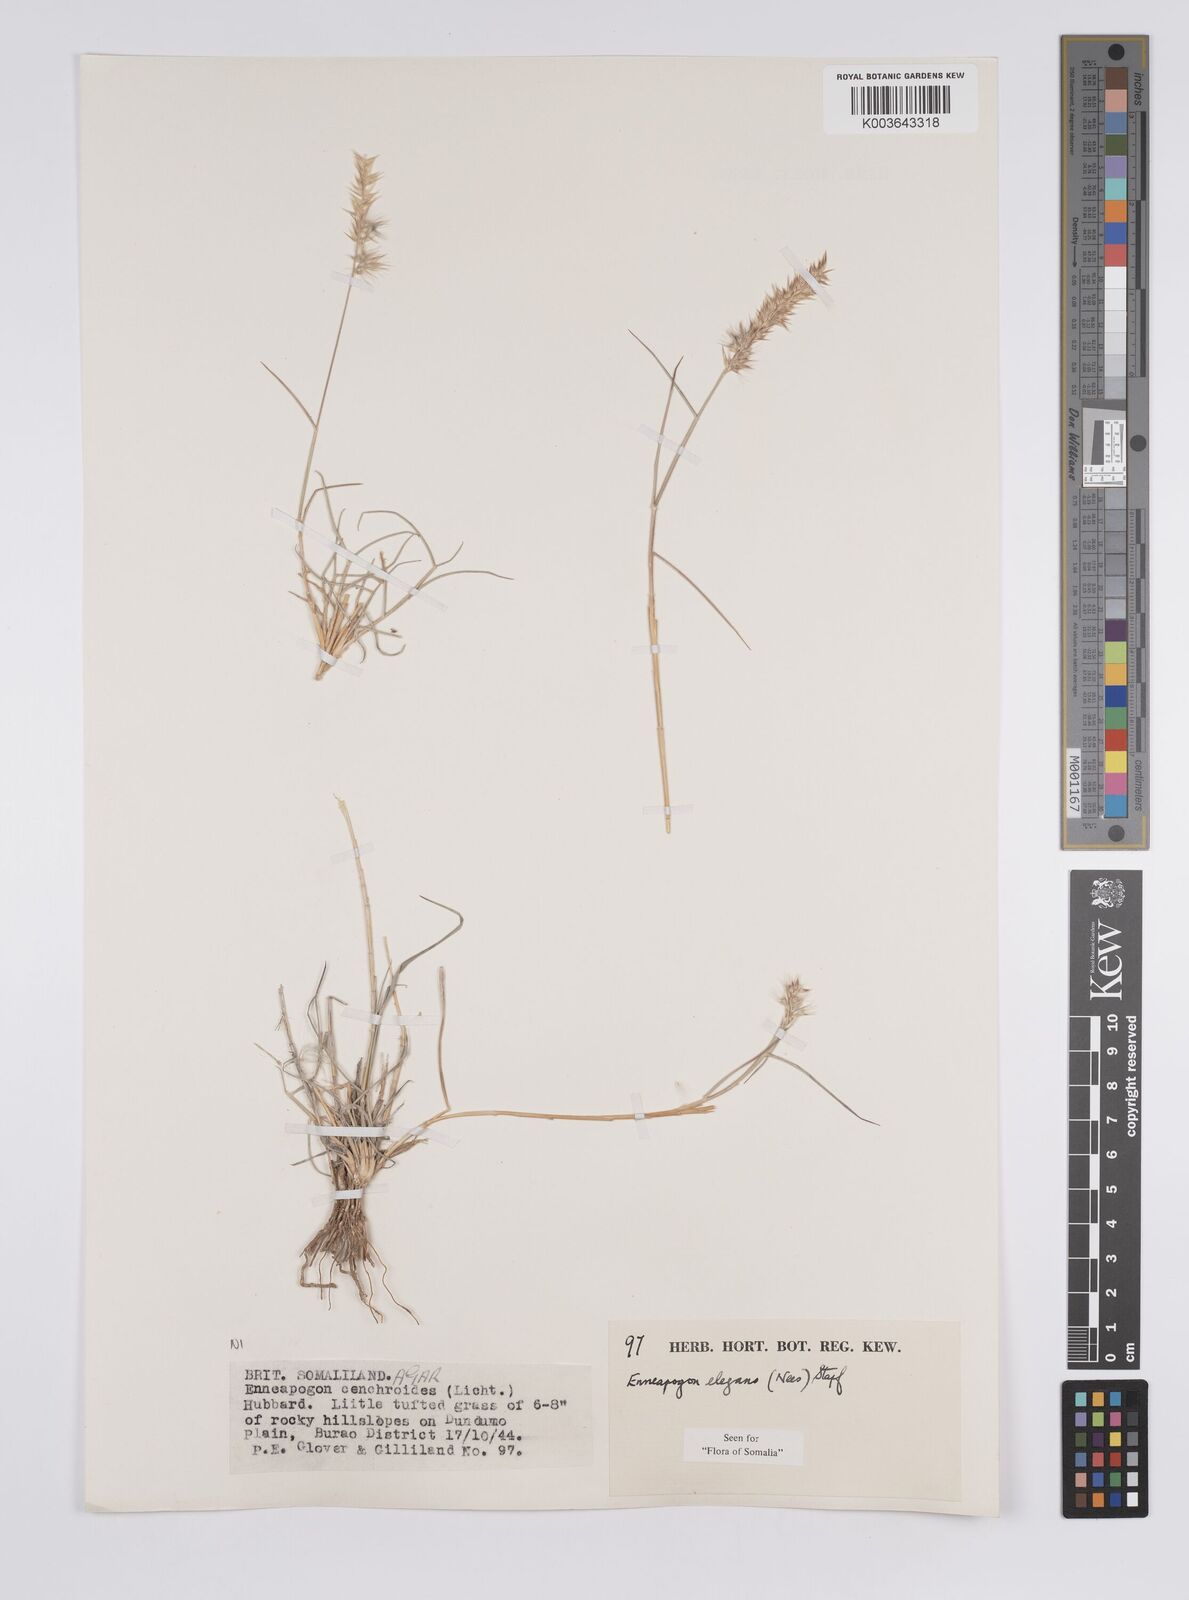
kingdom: Plantae
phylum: Tracheophyta
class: Liliopsida
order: Poales
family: Poaceae
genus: Enneapogon
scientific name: Enneapogon persicus
